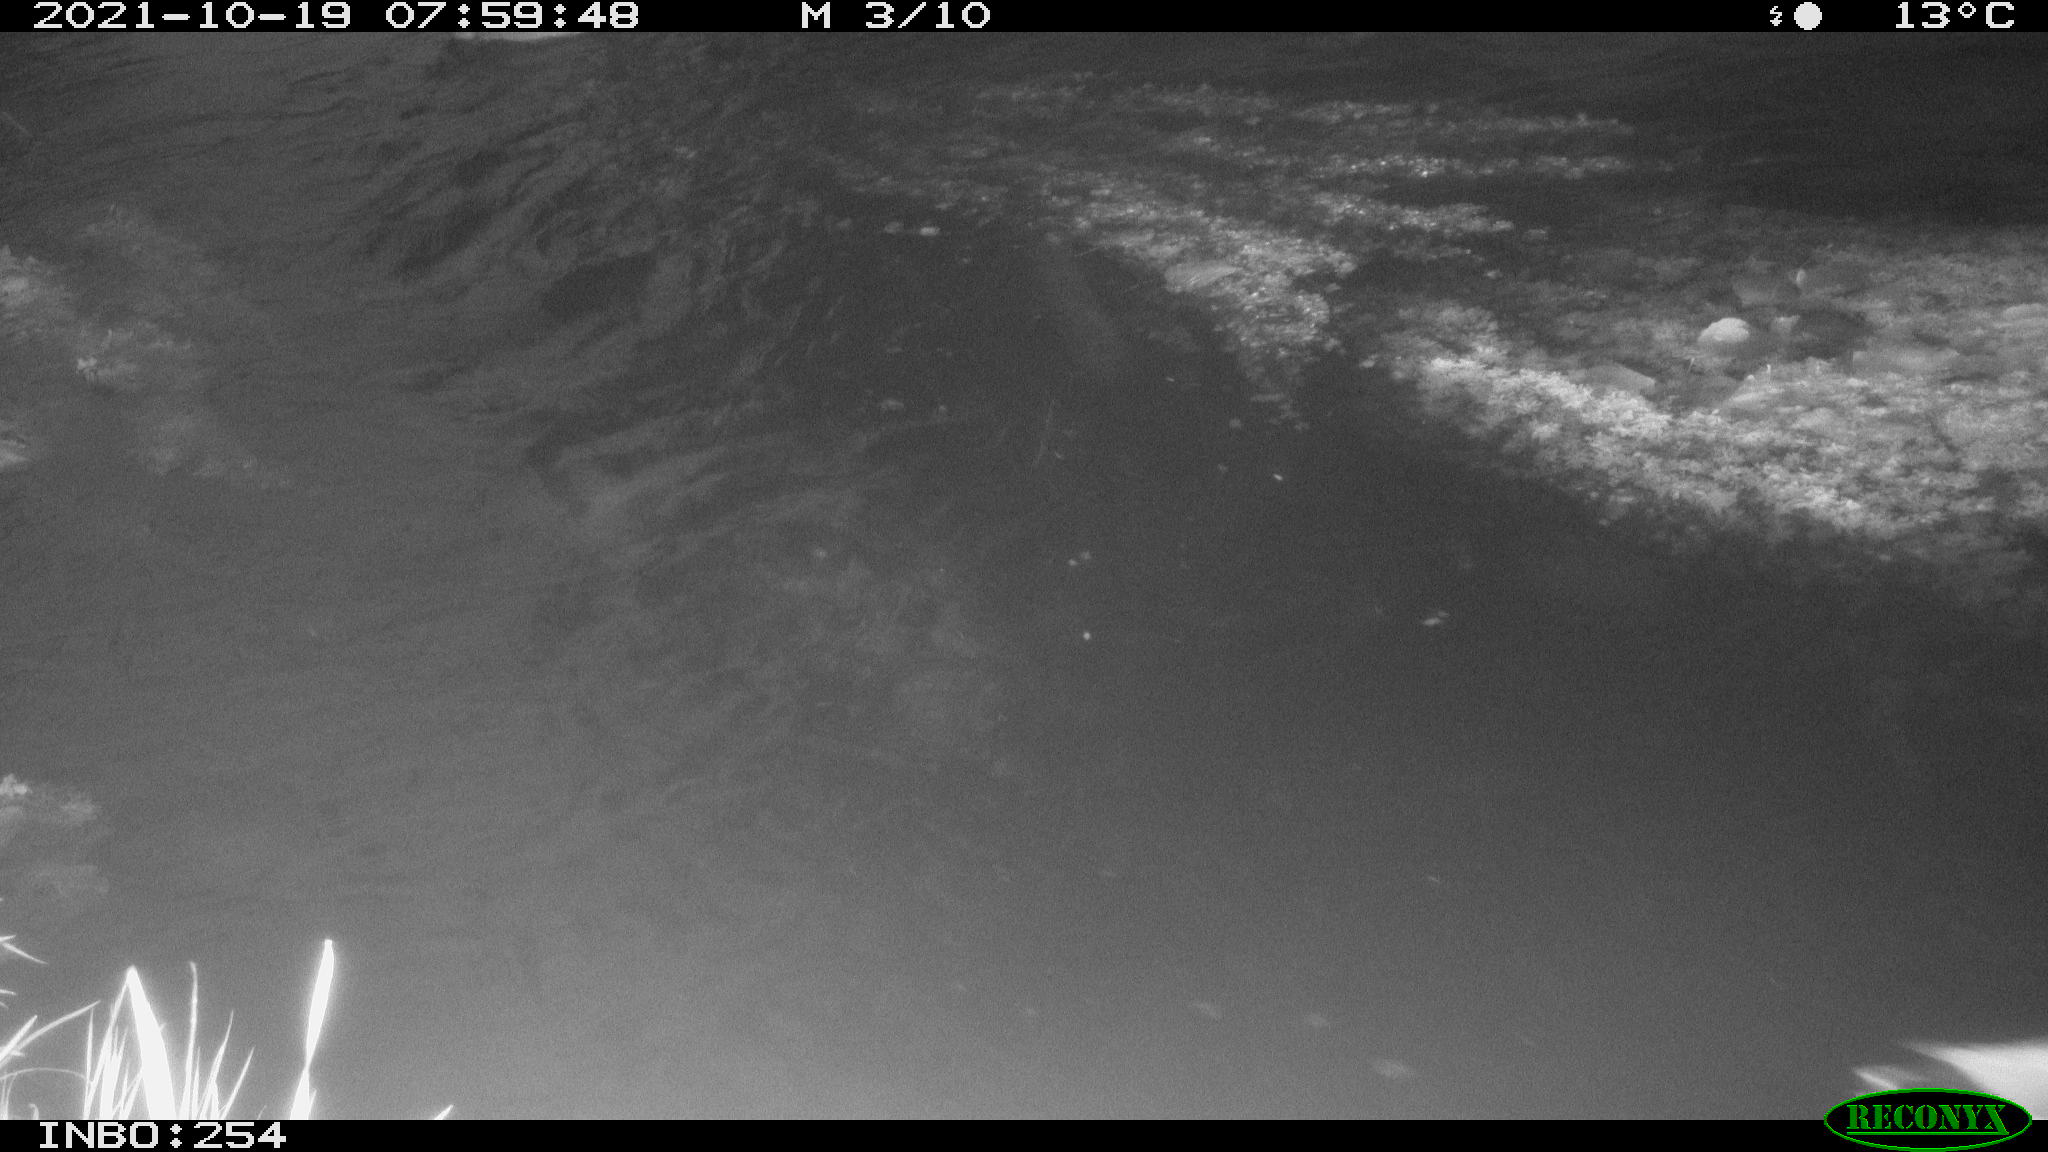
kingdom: Animalia
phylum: Chordata
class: Aves
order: Anseriformes
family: Anatidae
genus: Anas
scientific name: Anas platyrhynchos
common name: Mallard
